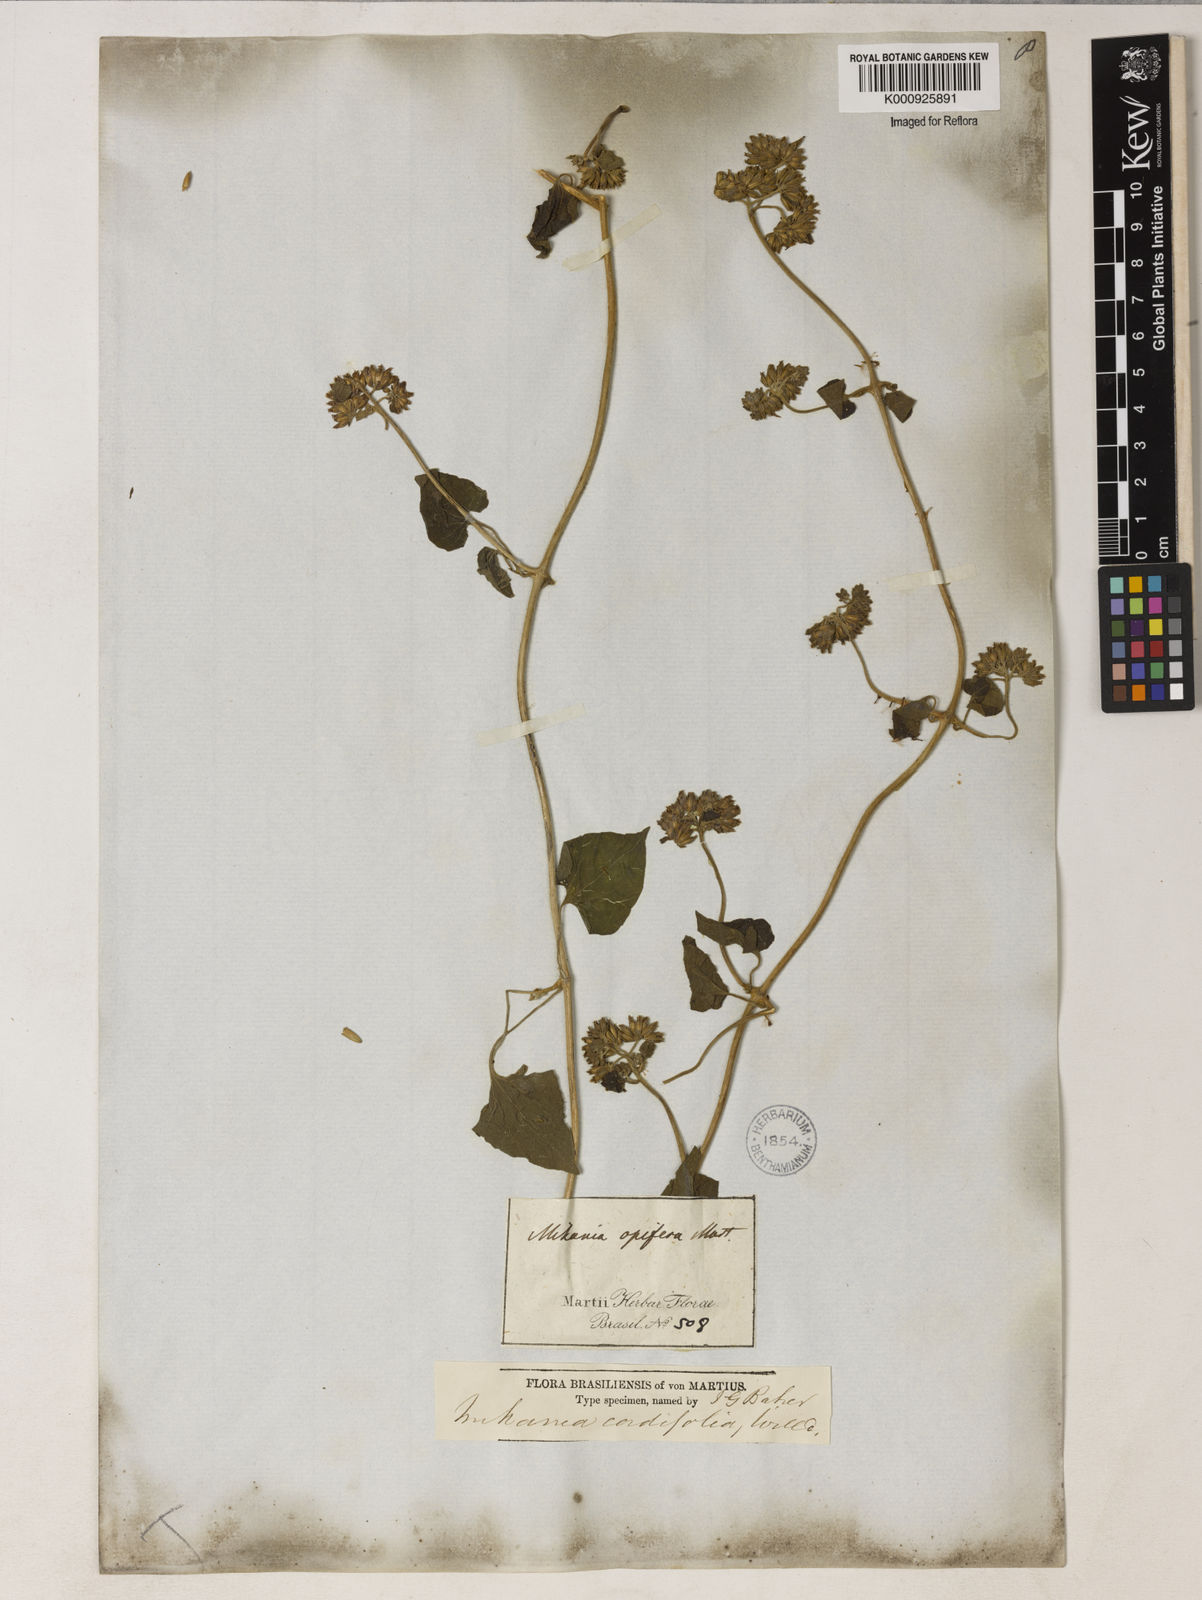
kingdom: Plantae
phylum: Tracheophyta
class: Magnoliopsida
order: Asterales
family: Asteraceae
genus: Mikania
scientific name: Mikania
